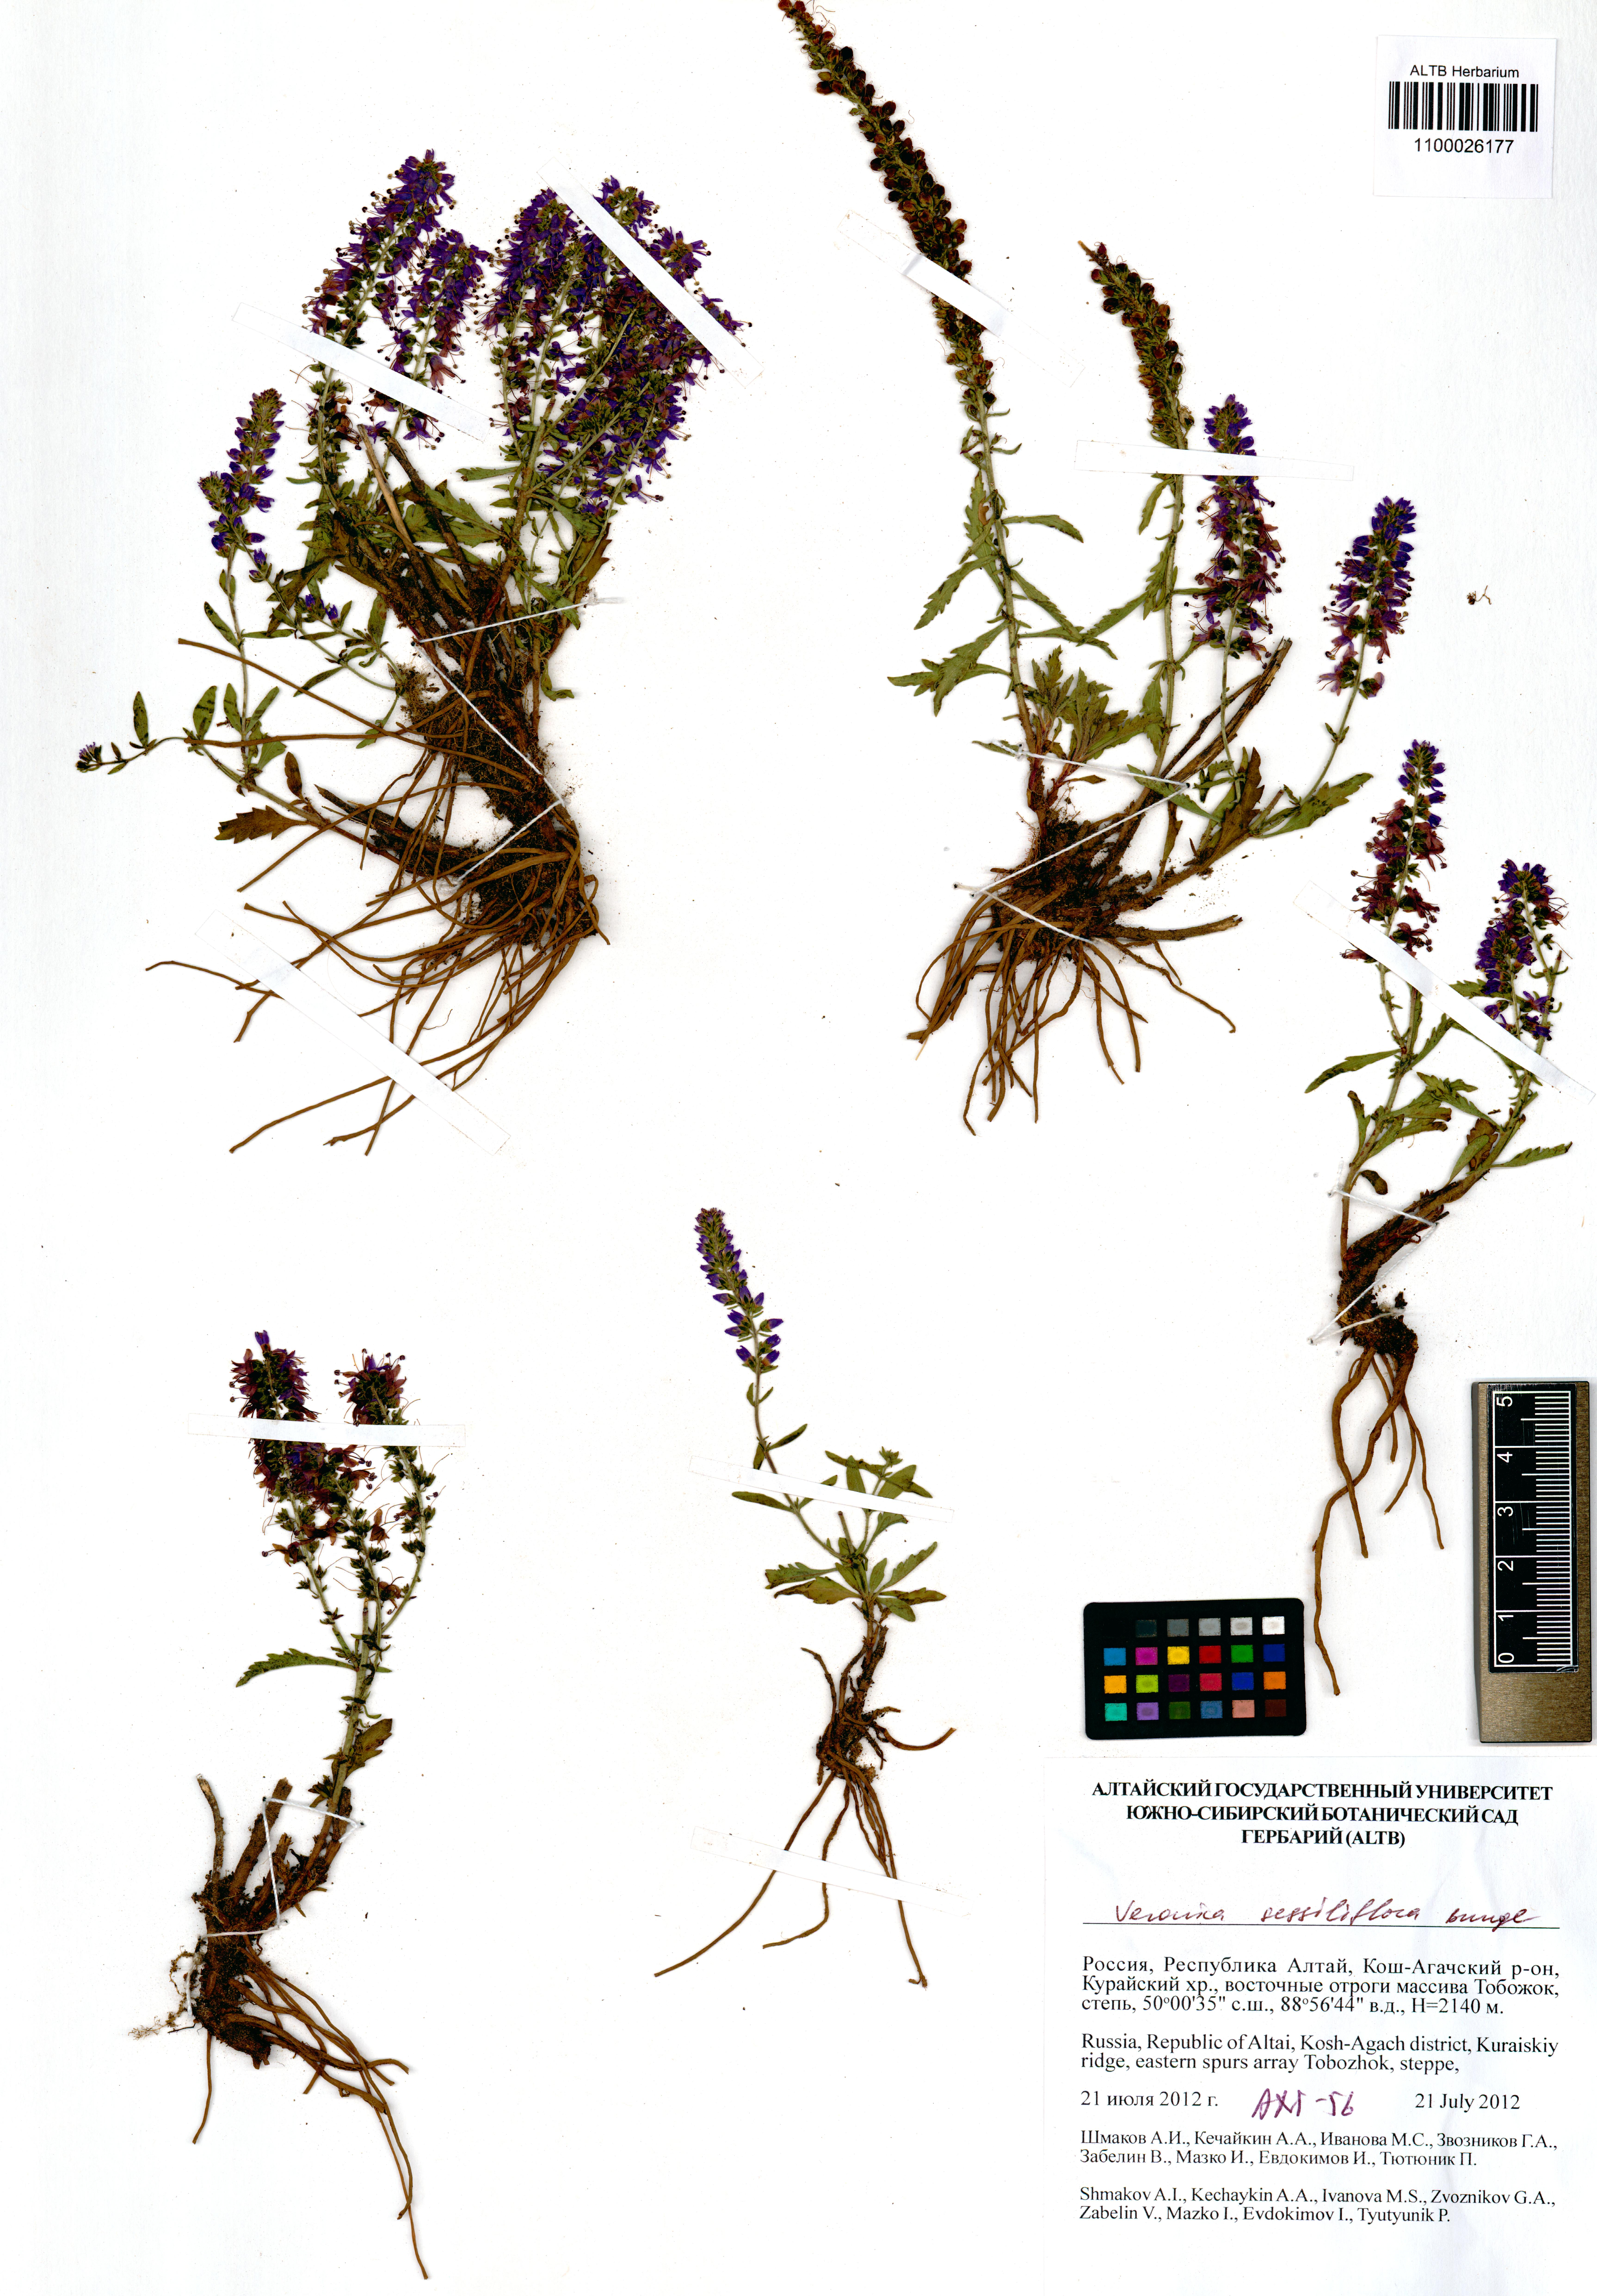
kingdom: Plantae
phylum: Tracheophyta
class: Magnoliopsida
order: Lamiales
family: Plantaginaceae
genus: Veronica
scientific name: Veronica sessiliflora
